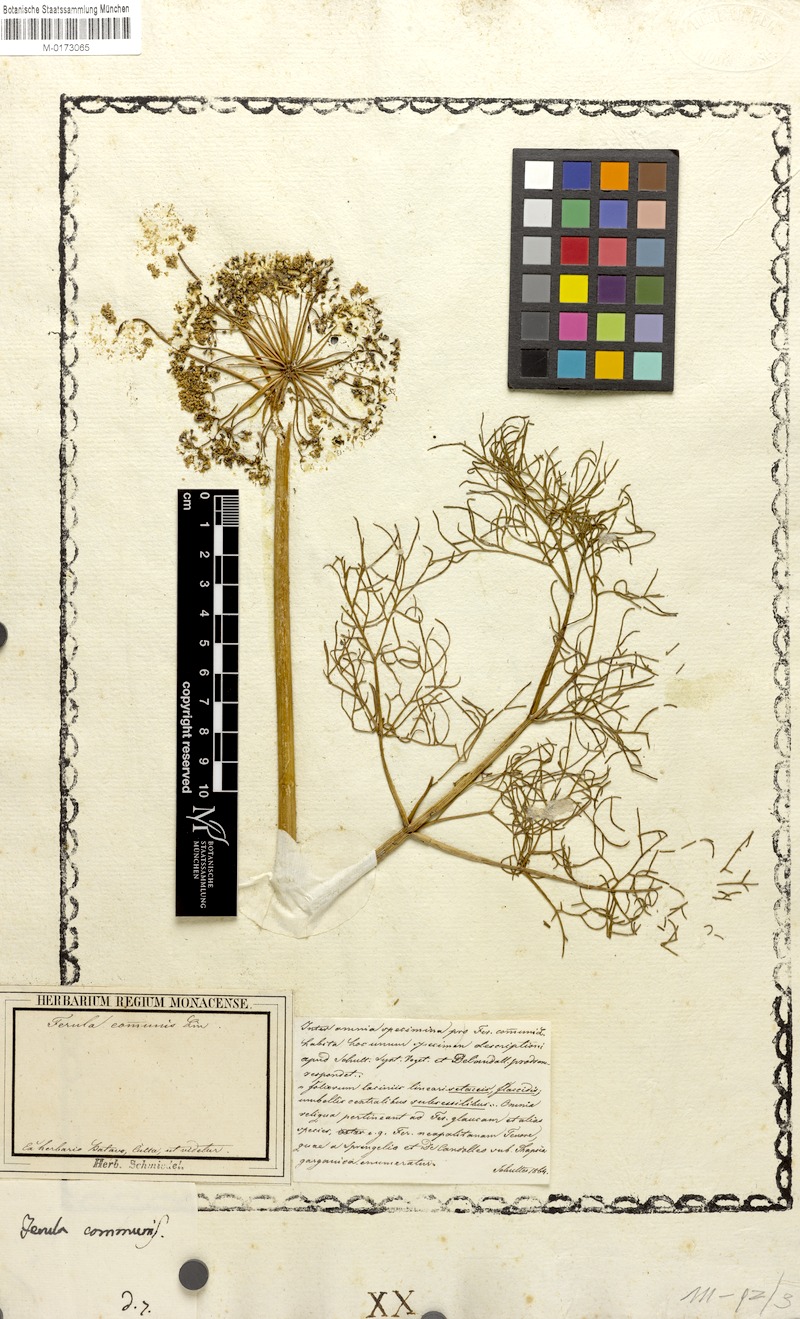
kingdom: Plantae
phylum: Tracheophyta
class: Magnoliopsida
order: Apiales
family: Apiaceae
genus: Ferula
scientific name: Ferula communis
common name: Giant fennel
